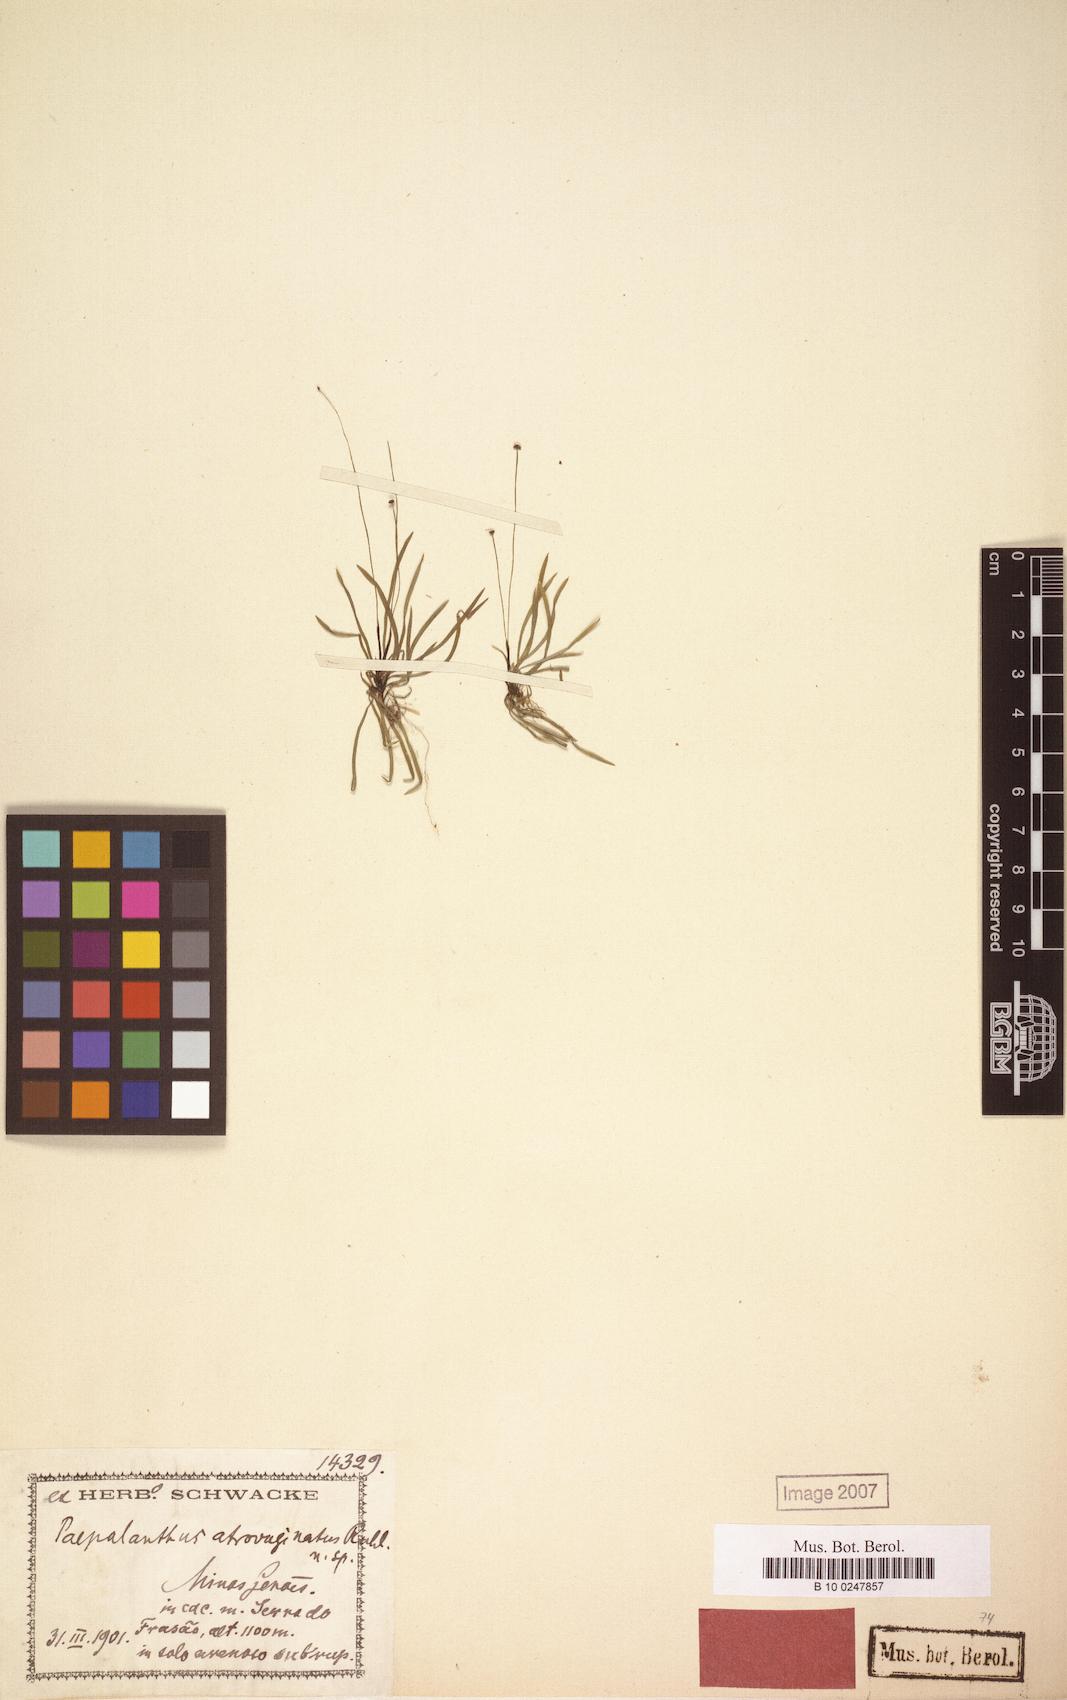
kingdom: Plantae
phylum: Tracheophyta
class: Liliopsida
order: Poales
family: Eriocaulaceae
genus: Paepalanthus
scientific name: Paepalanthus atrovaginatus
